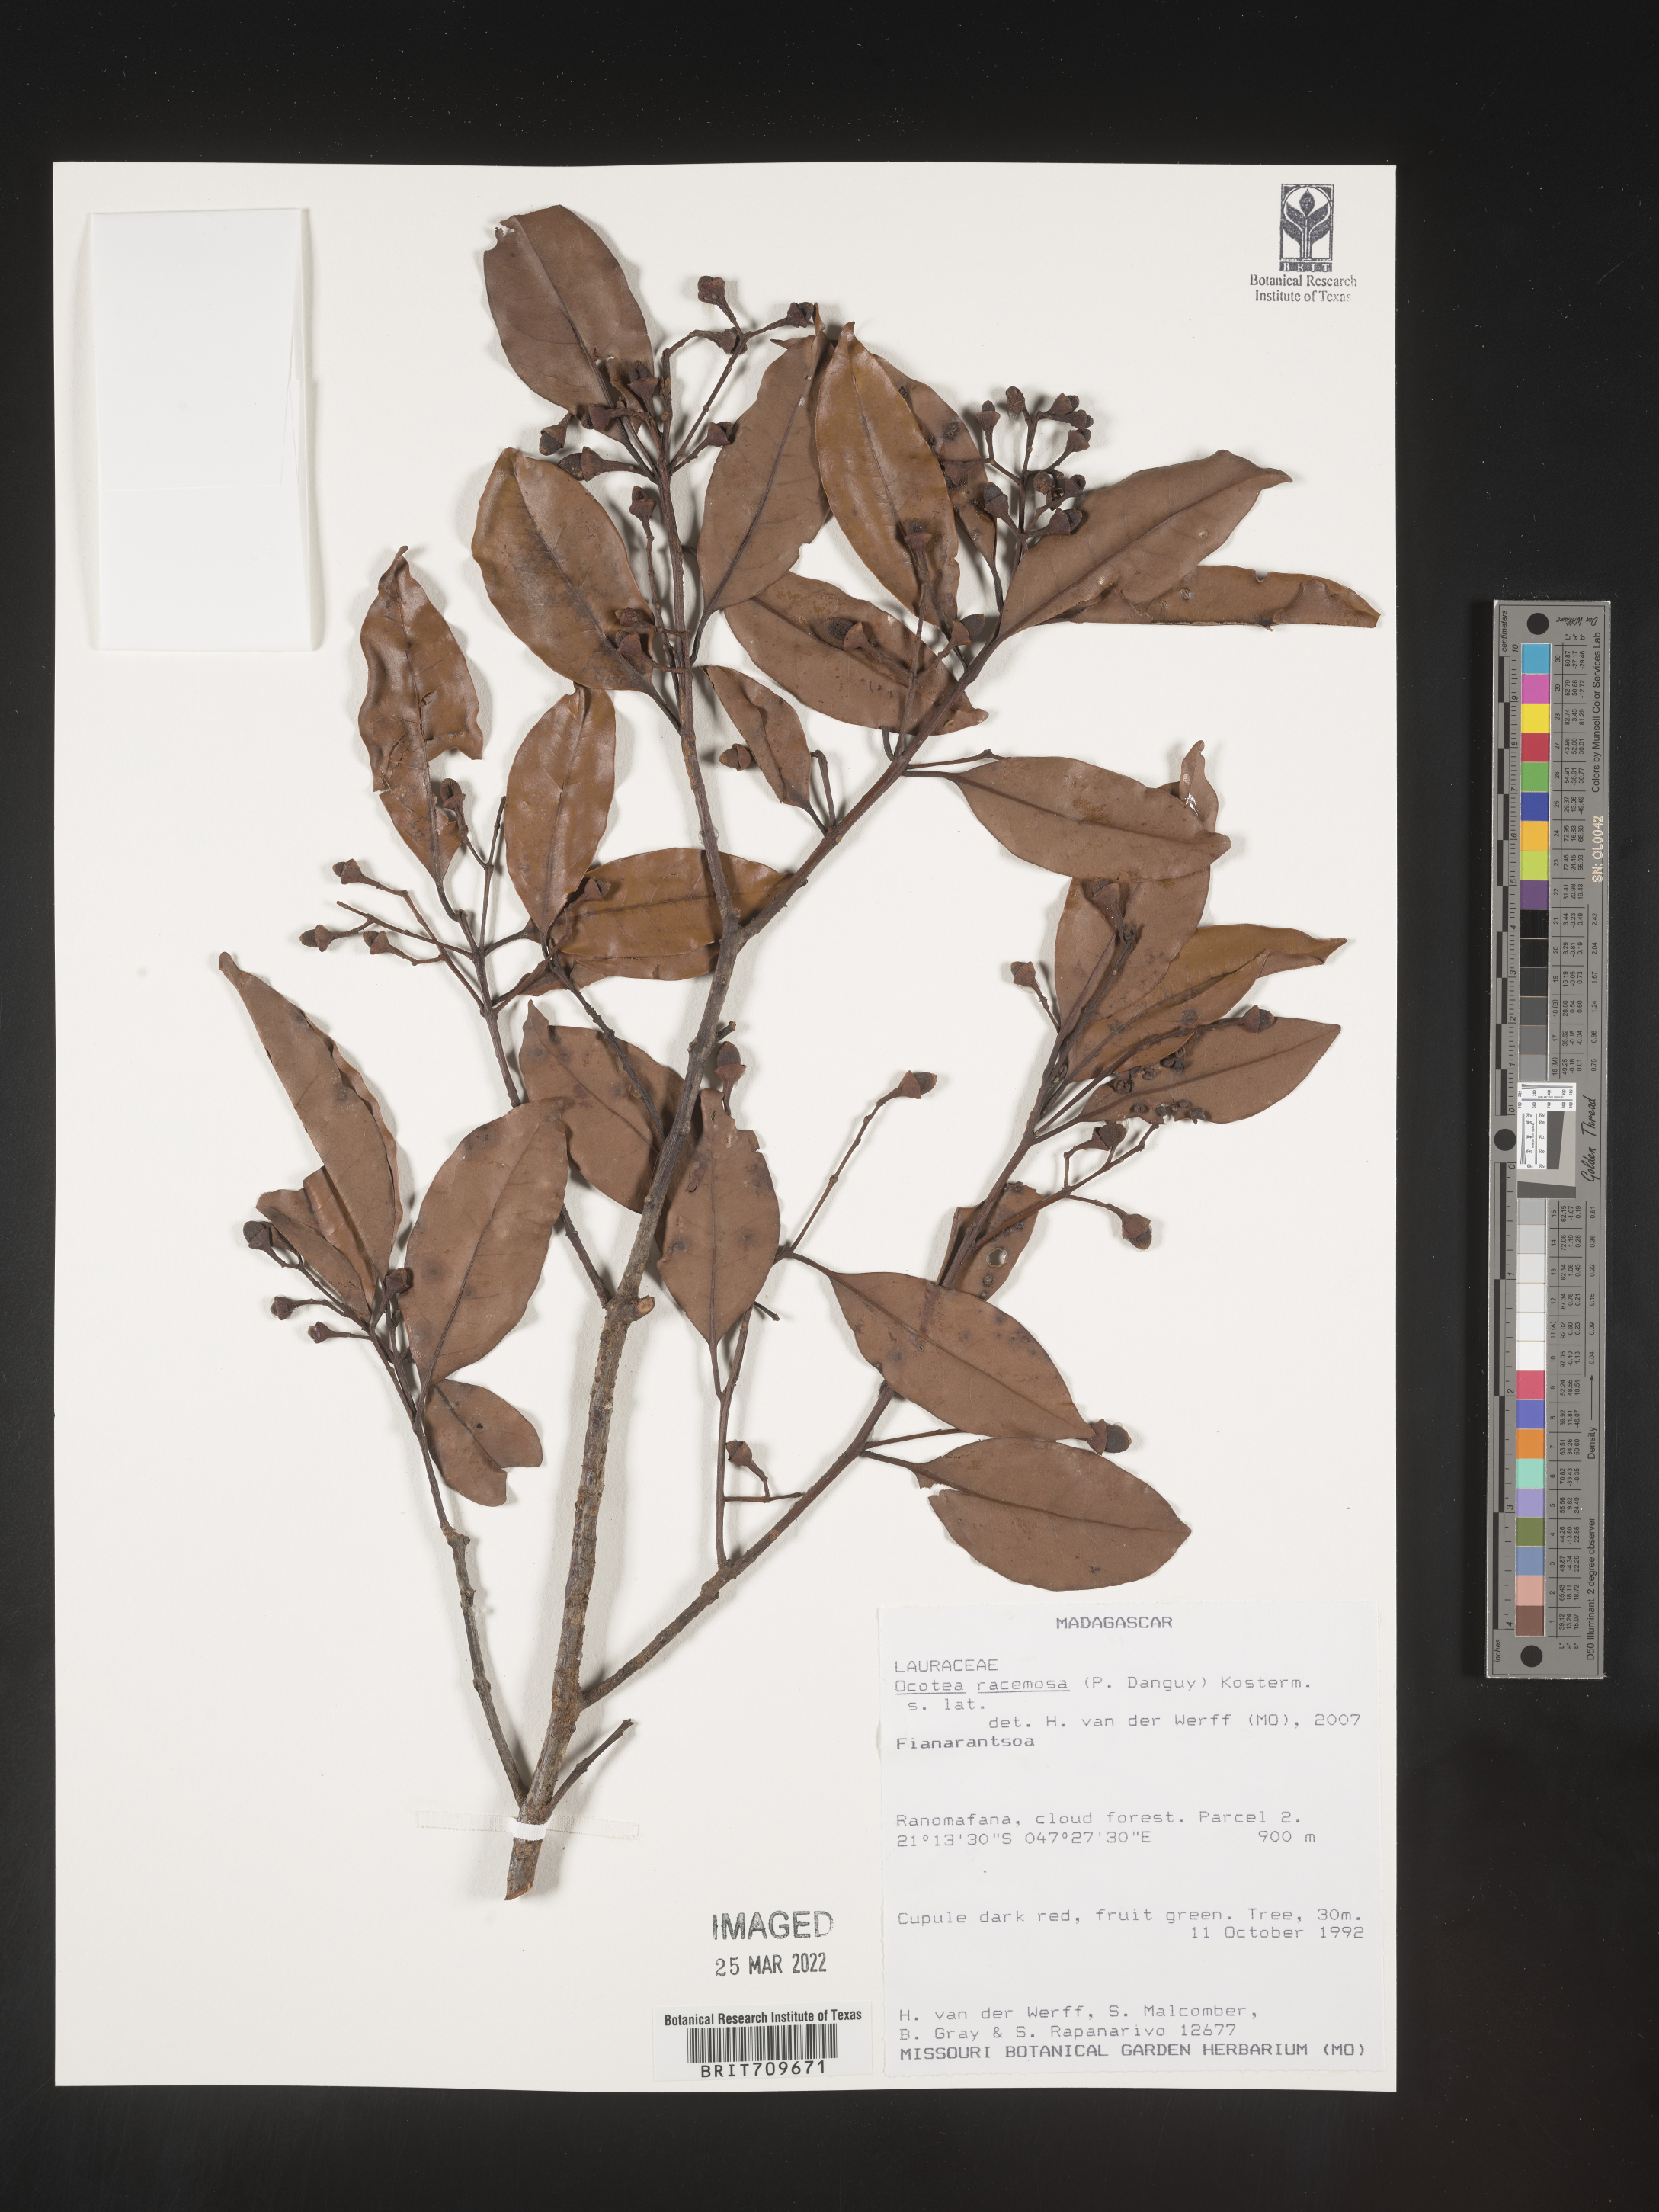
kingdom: Plantae
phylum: Tracheophyta
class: Magnoliopsida
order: Laurales
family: Lauraceae
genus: Ocotea
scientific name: Ocotea
